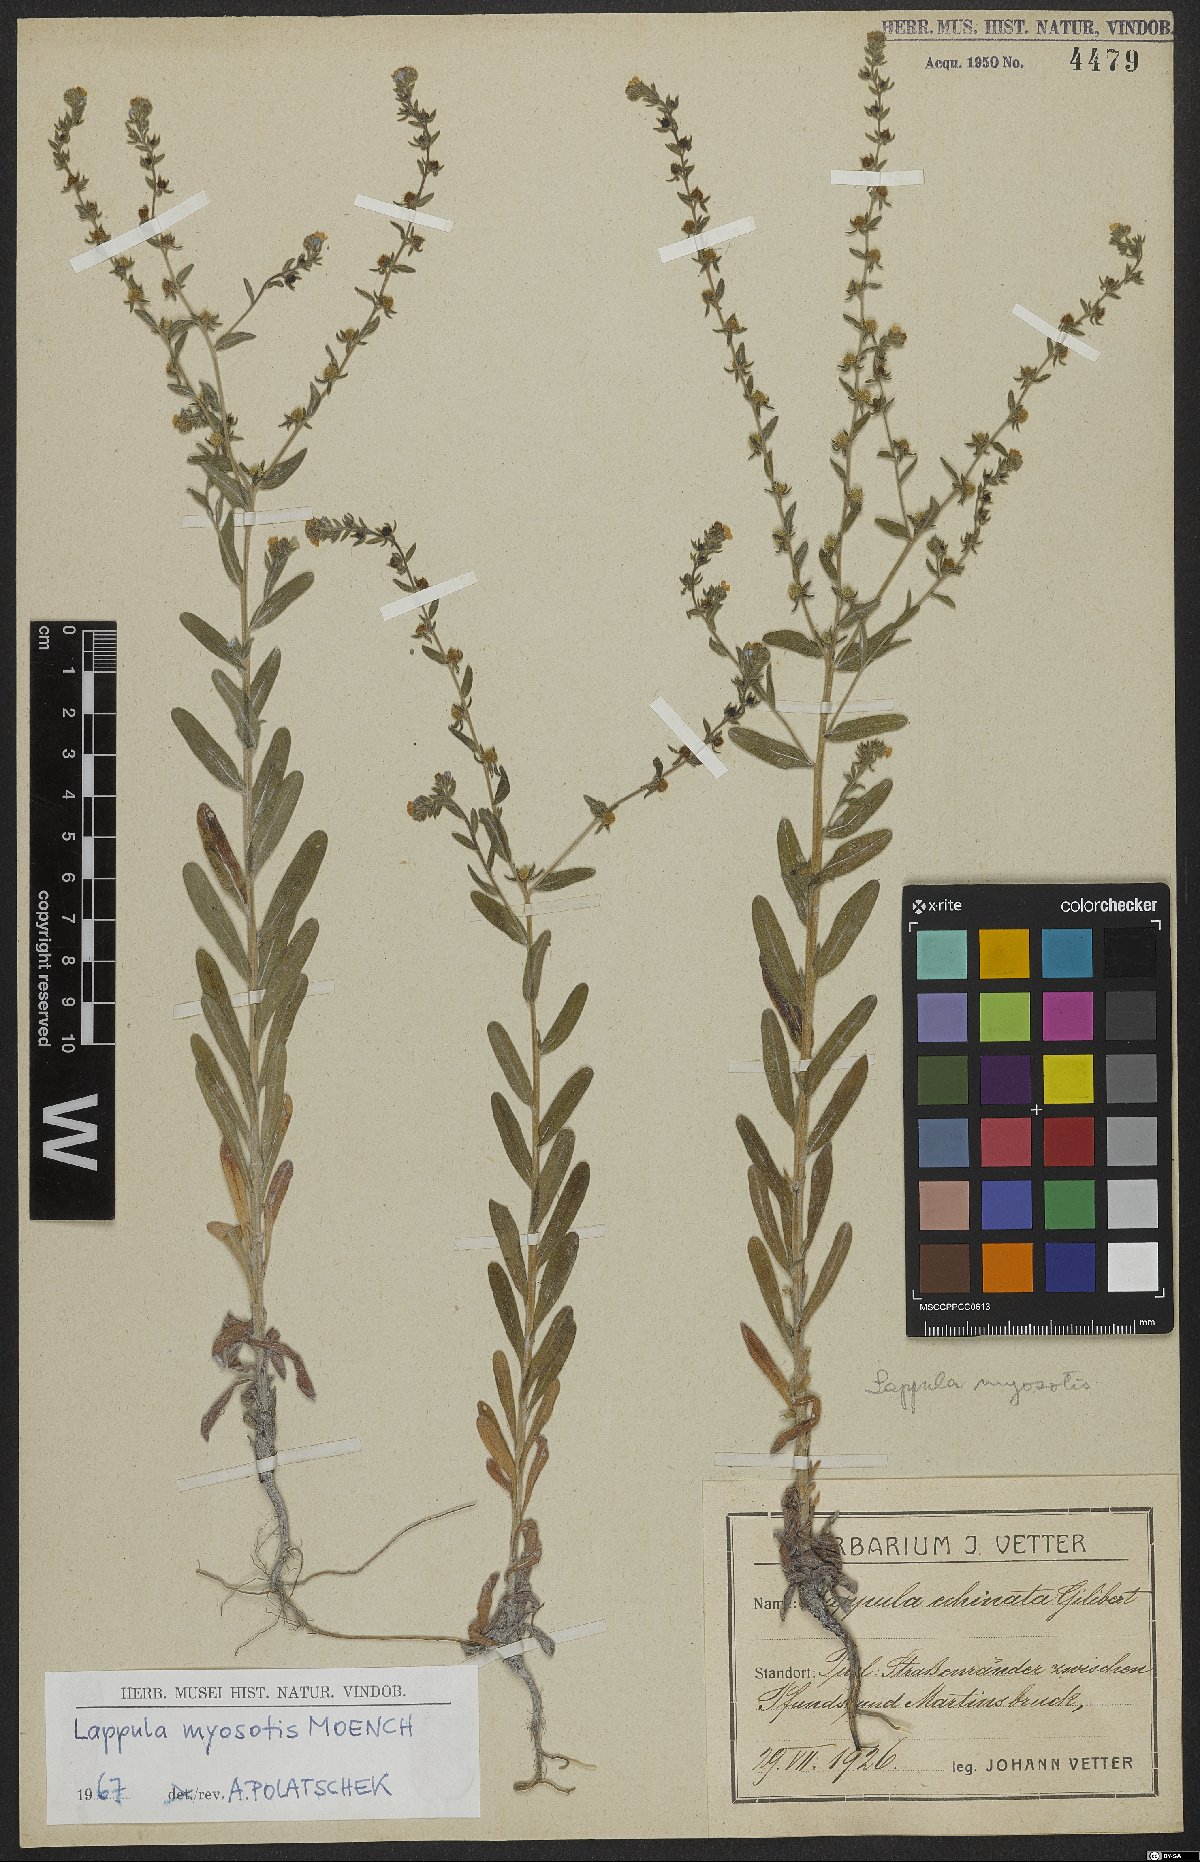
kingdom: Plantae
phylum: Tracheophyta
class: Magnoliopsida
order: Boraginales
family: Boraginaceae
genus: Lappula
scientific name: Lappula squarrosa
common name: European stickseed
